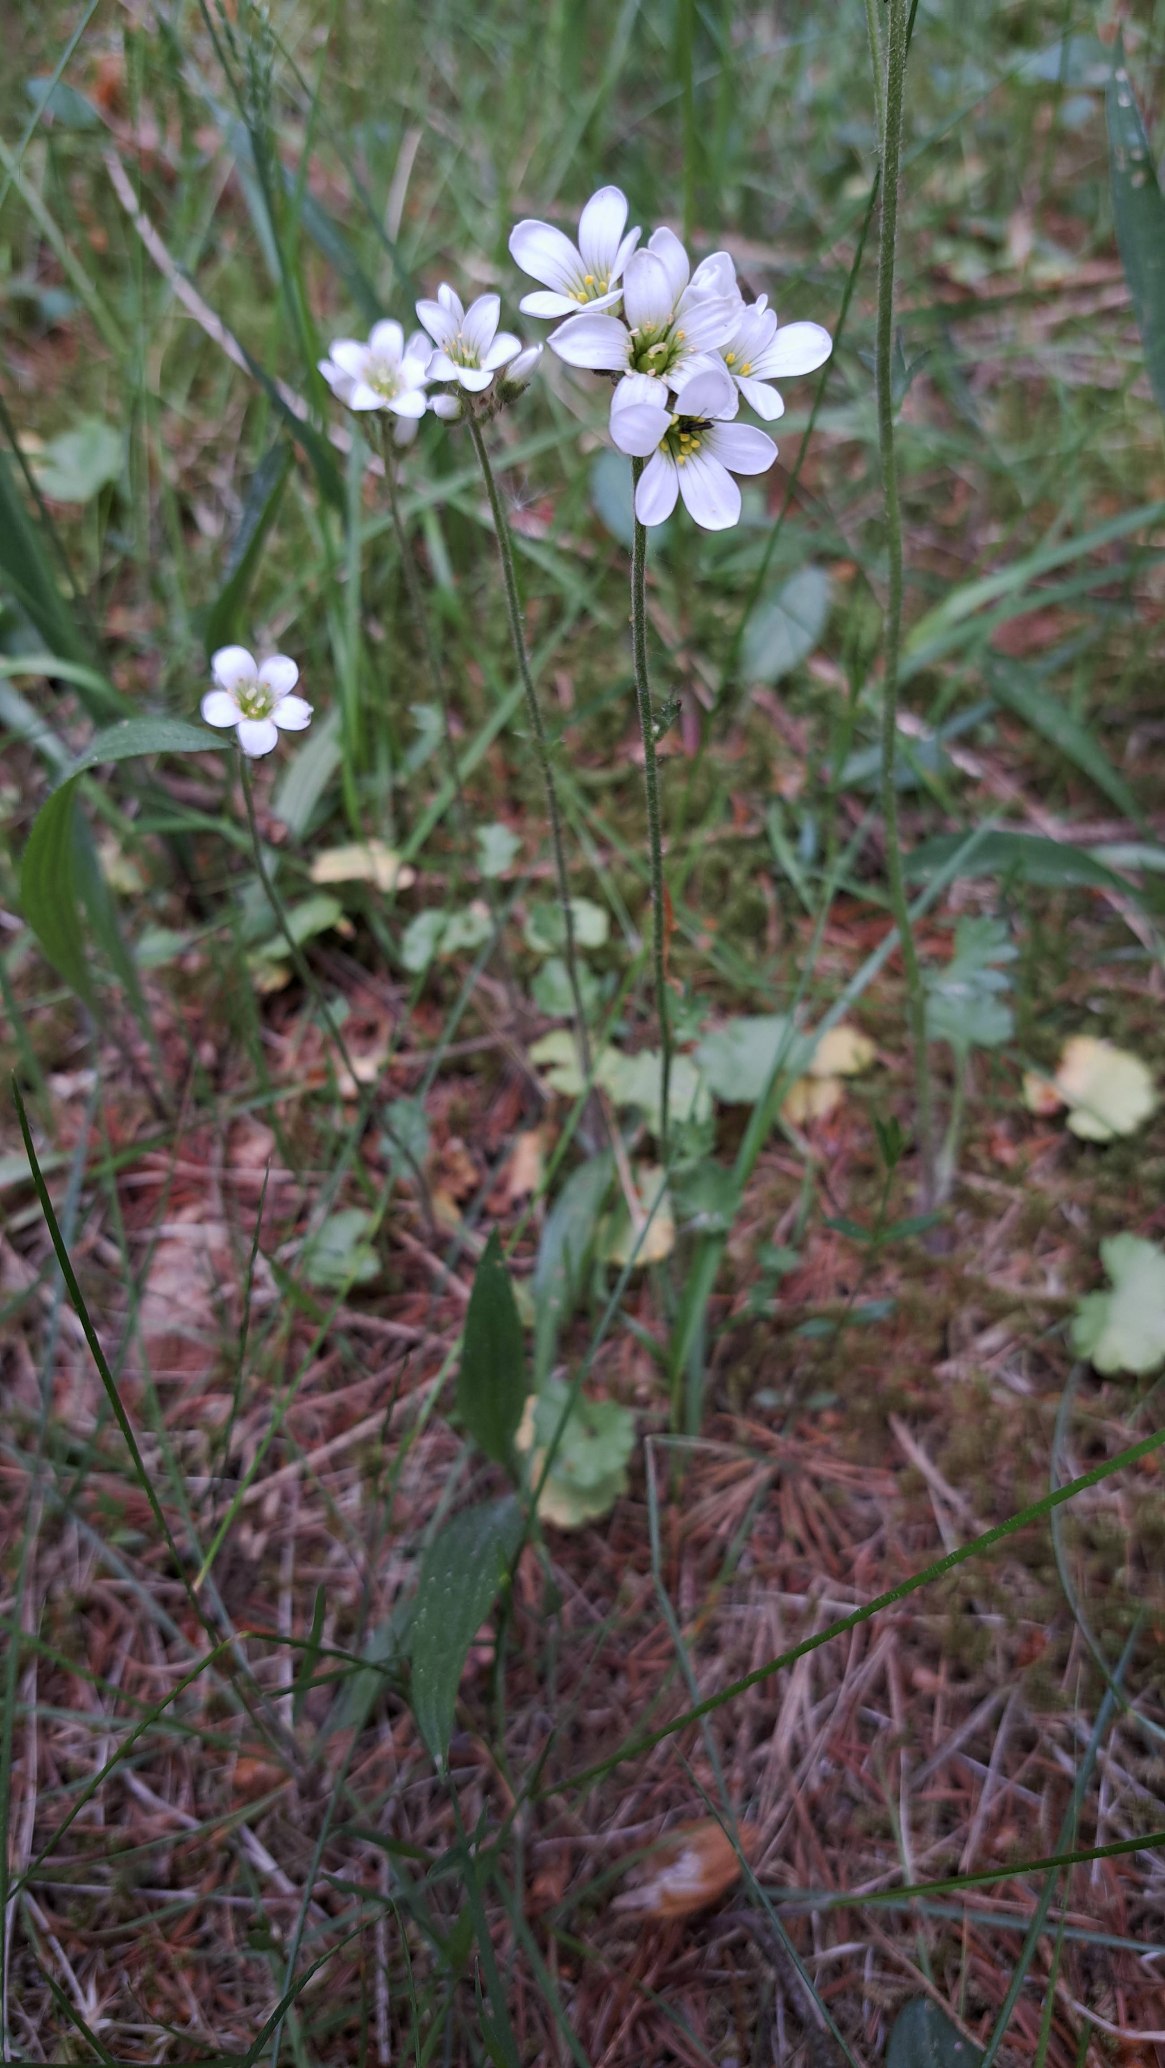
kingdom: Plantae
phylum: Tracheophyta
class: Magnoliopsida
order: Saxifragales
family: Saxifragaceae
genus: Saxifraga
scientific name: Saxifraga granulata
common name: Kornet stenbræk
